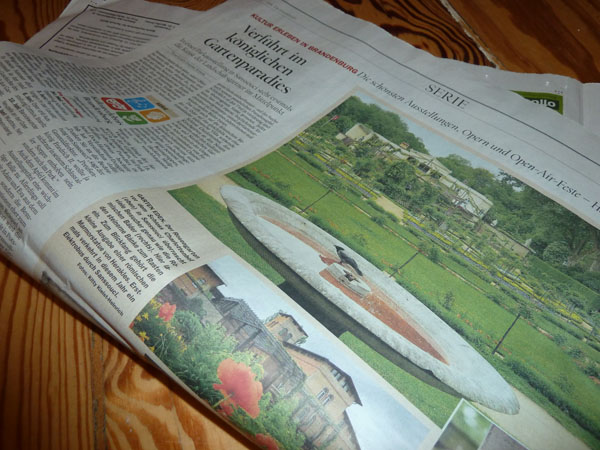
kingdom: Animalia
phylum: Chordata
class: Aves
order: Passeriformes
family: Corvidae
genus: Corvus
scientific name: Corvus cornix
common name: Hooded crow
